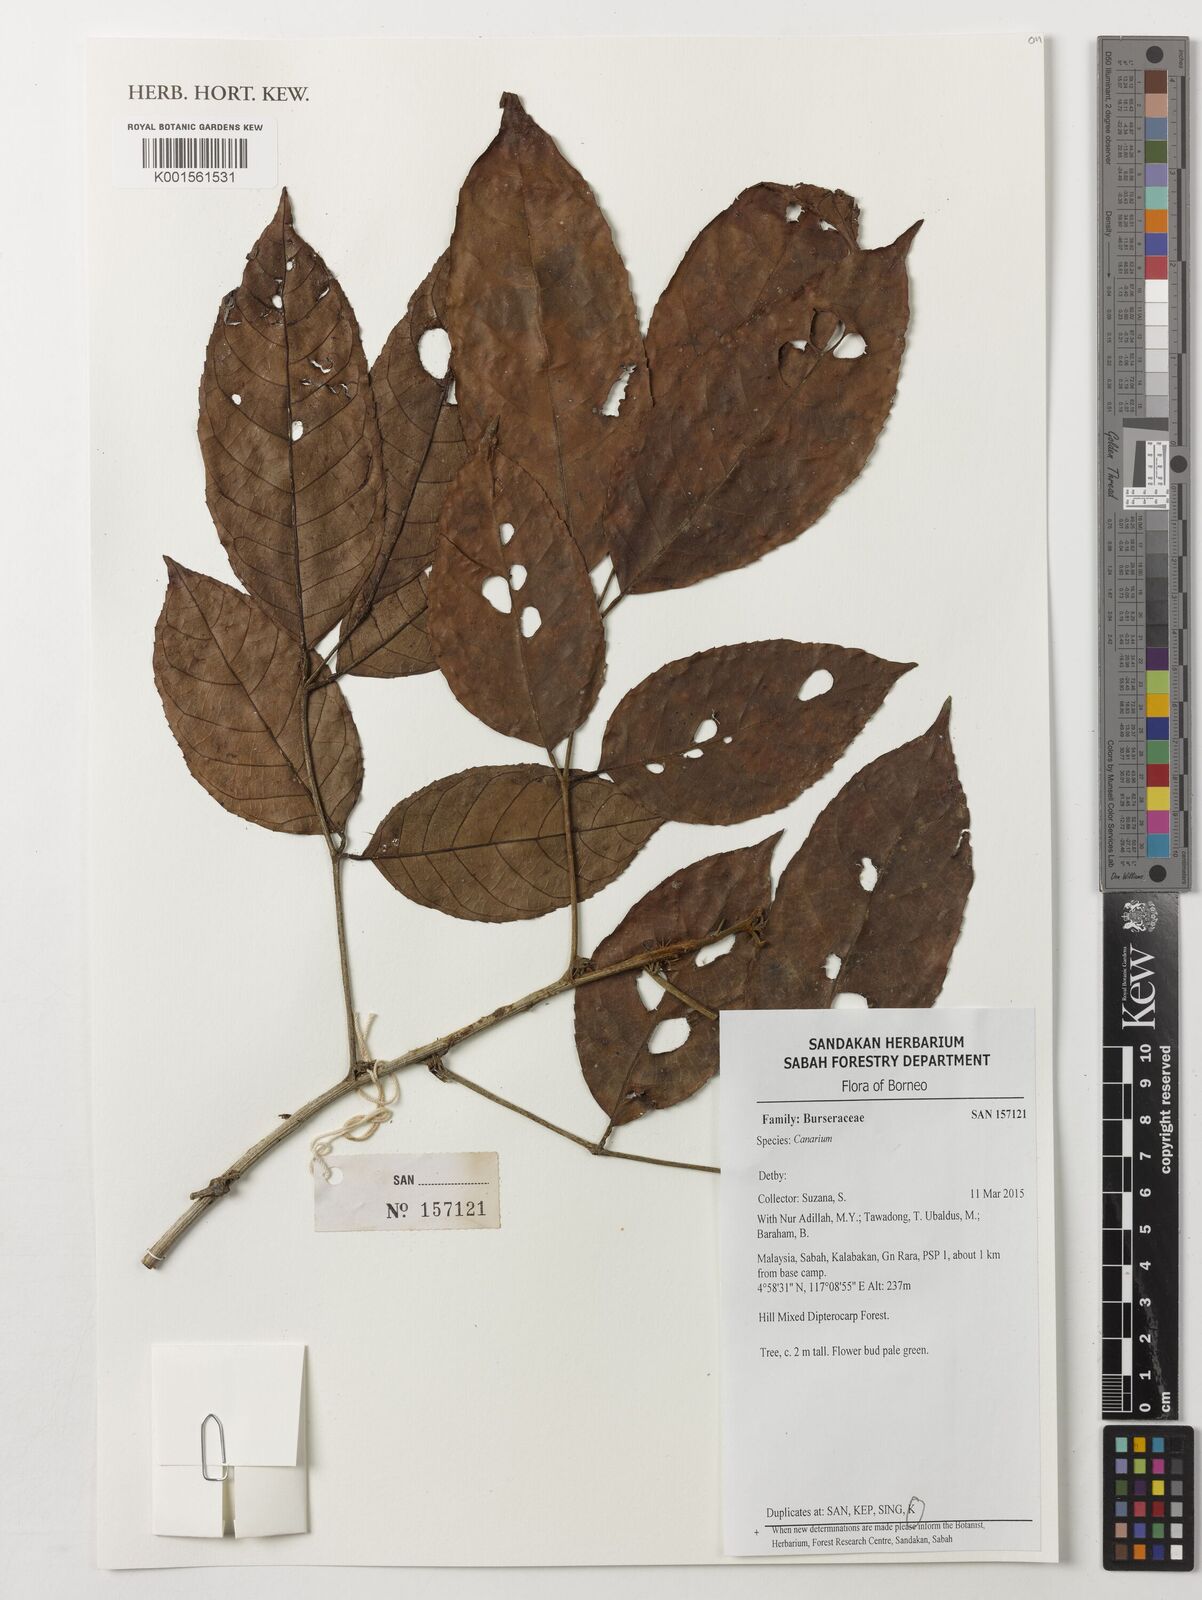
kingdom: Plantae
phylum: Tracheophyta
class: Magnoliopsida
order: Sapindales
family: Burseraceae
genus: Canarium
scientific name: Canarium
